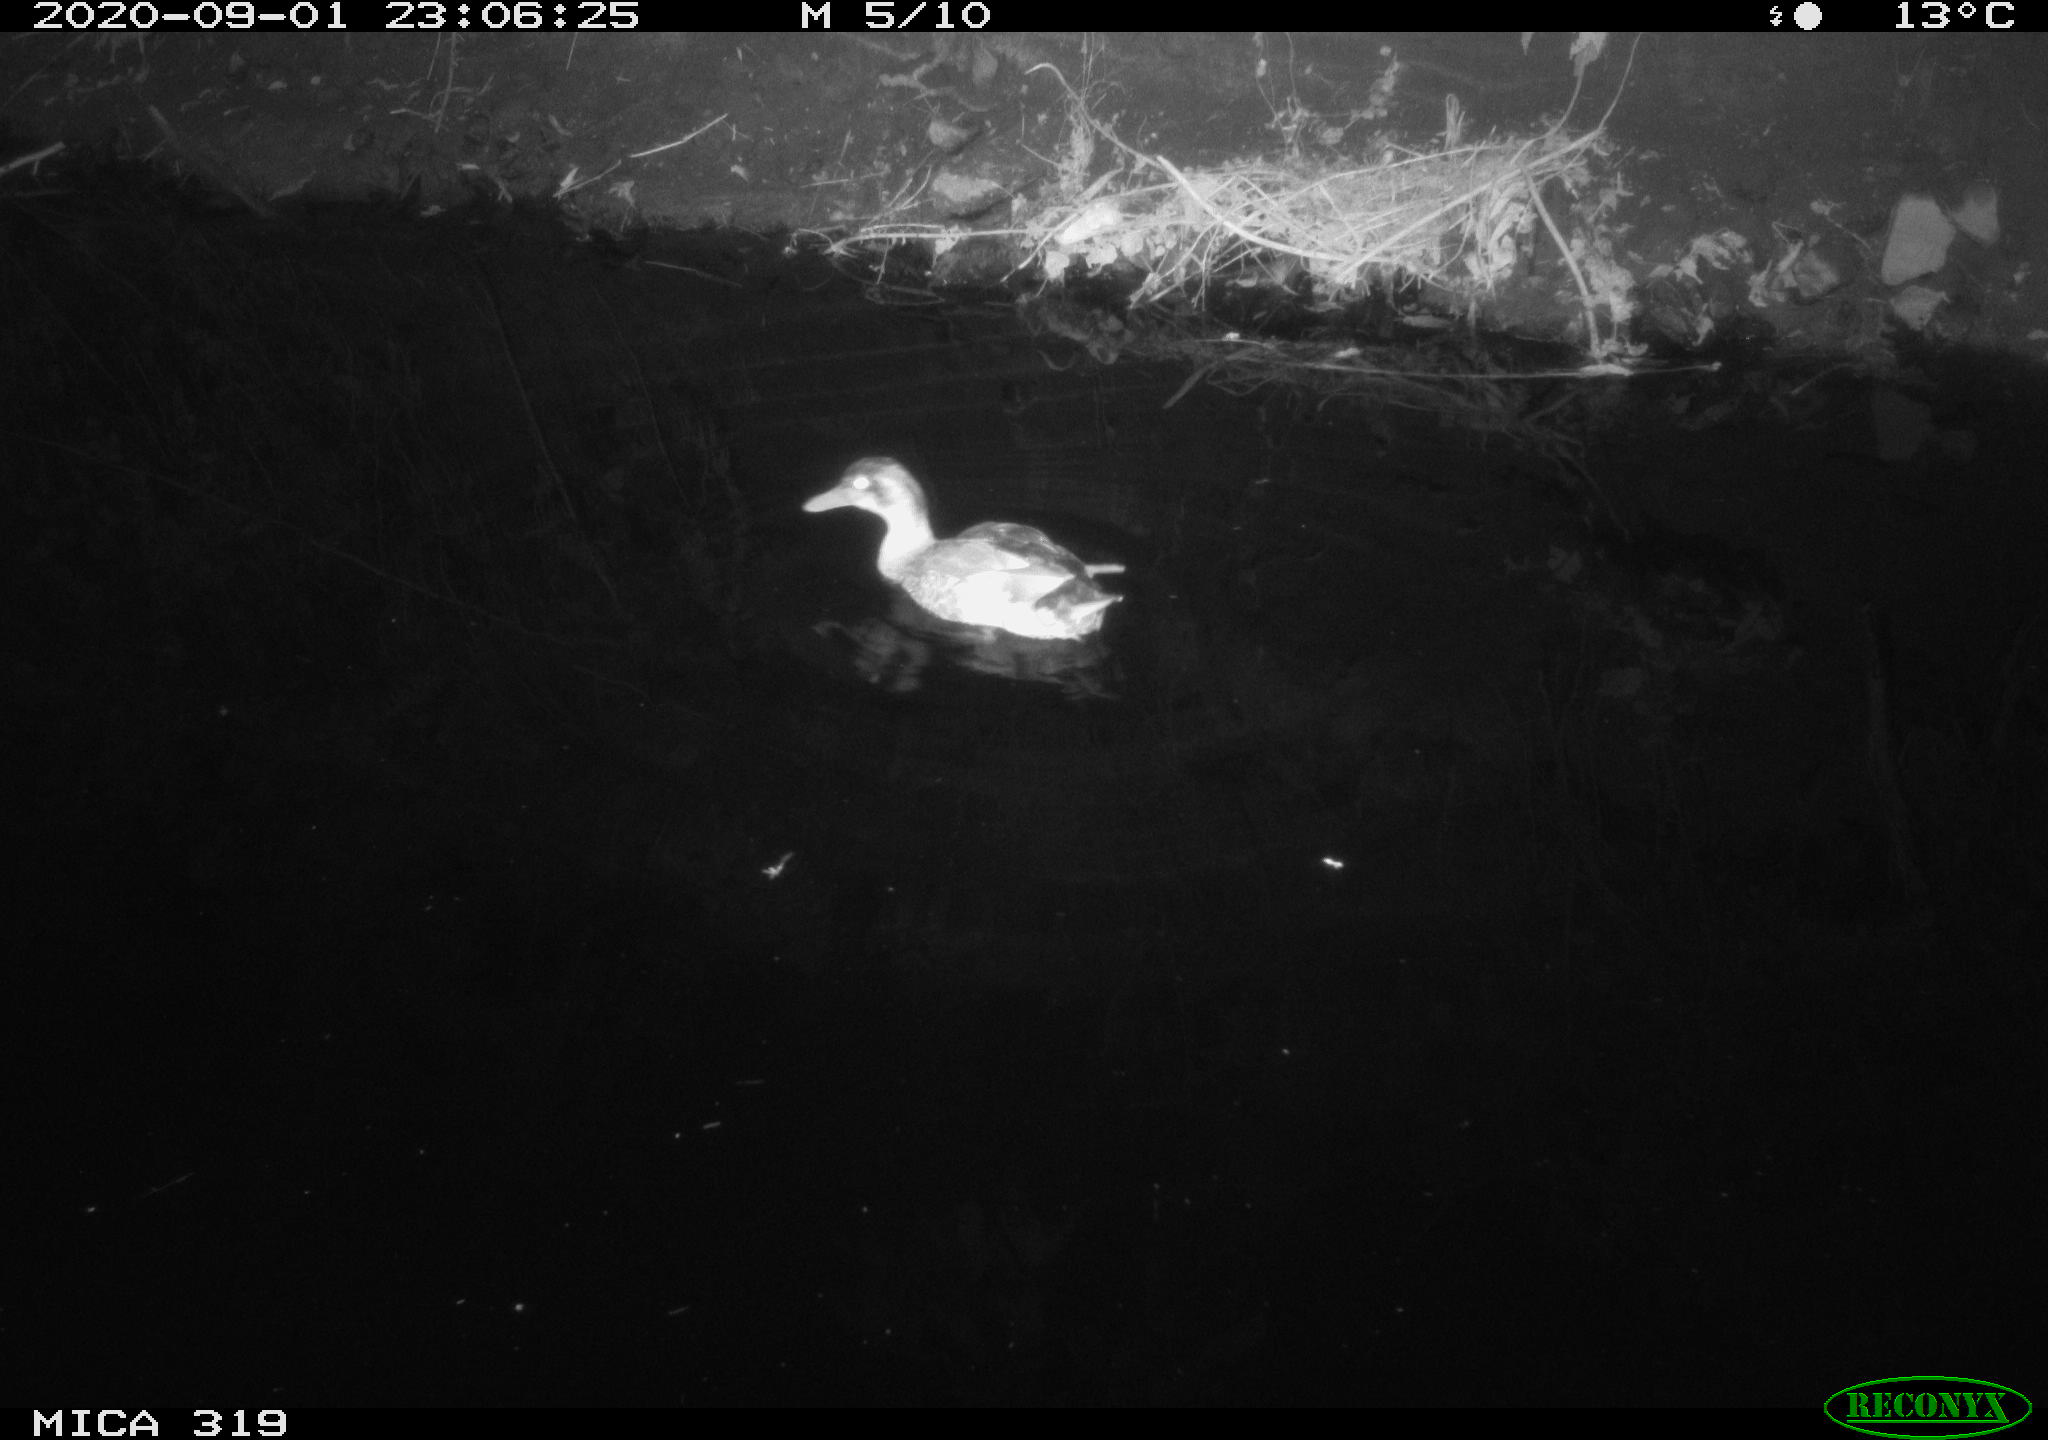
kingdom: Animalia
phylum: Chordata
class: Aves
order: Anseriformes
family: Anatidae
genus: Anas
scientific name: Anas platyrhynchos
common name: Mallard
